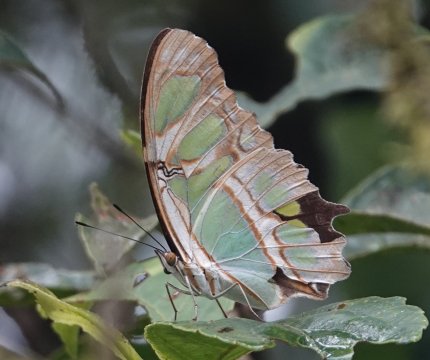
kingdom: Animalia
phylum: Arthropoda
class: Insecta
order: Lepidoptera
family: Nymphalidae
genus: Siproeta
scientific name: Siproeta stelenes
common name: Malachite
